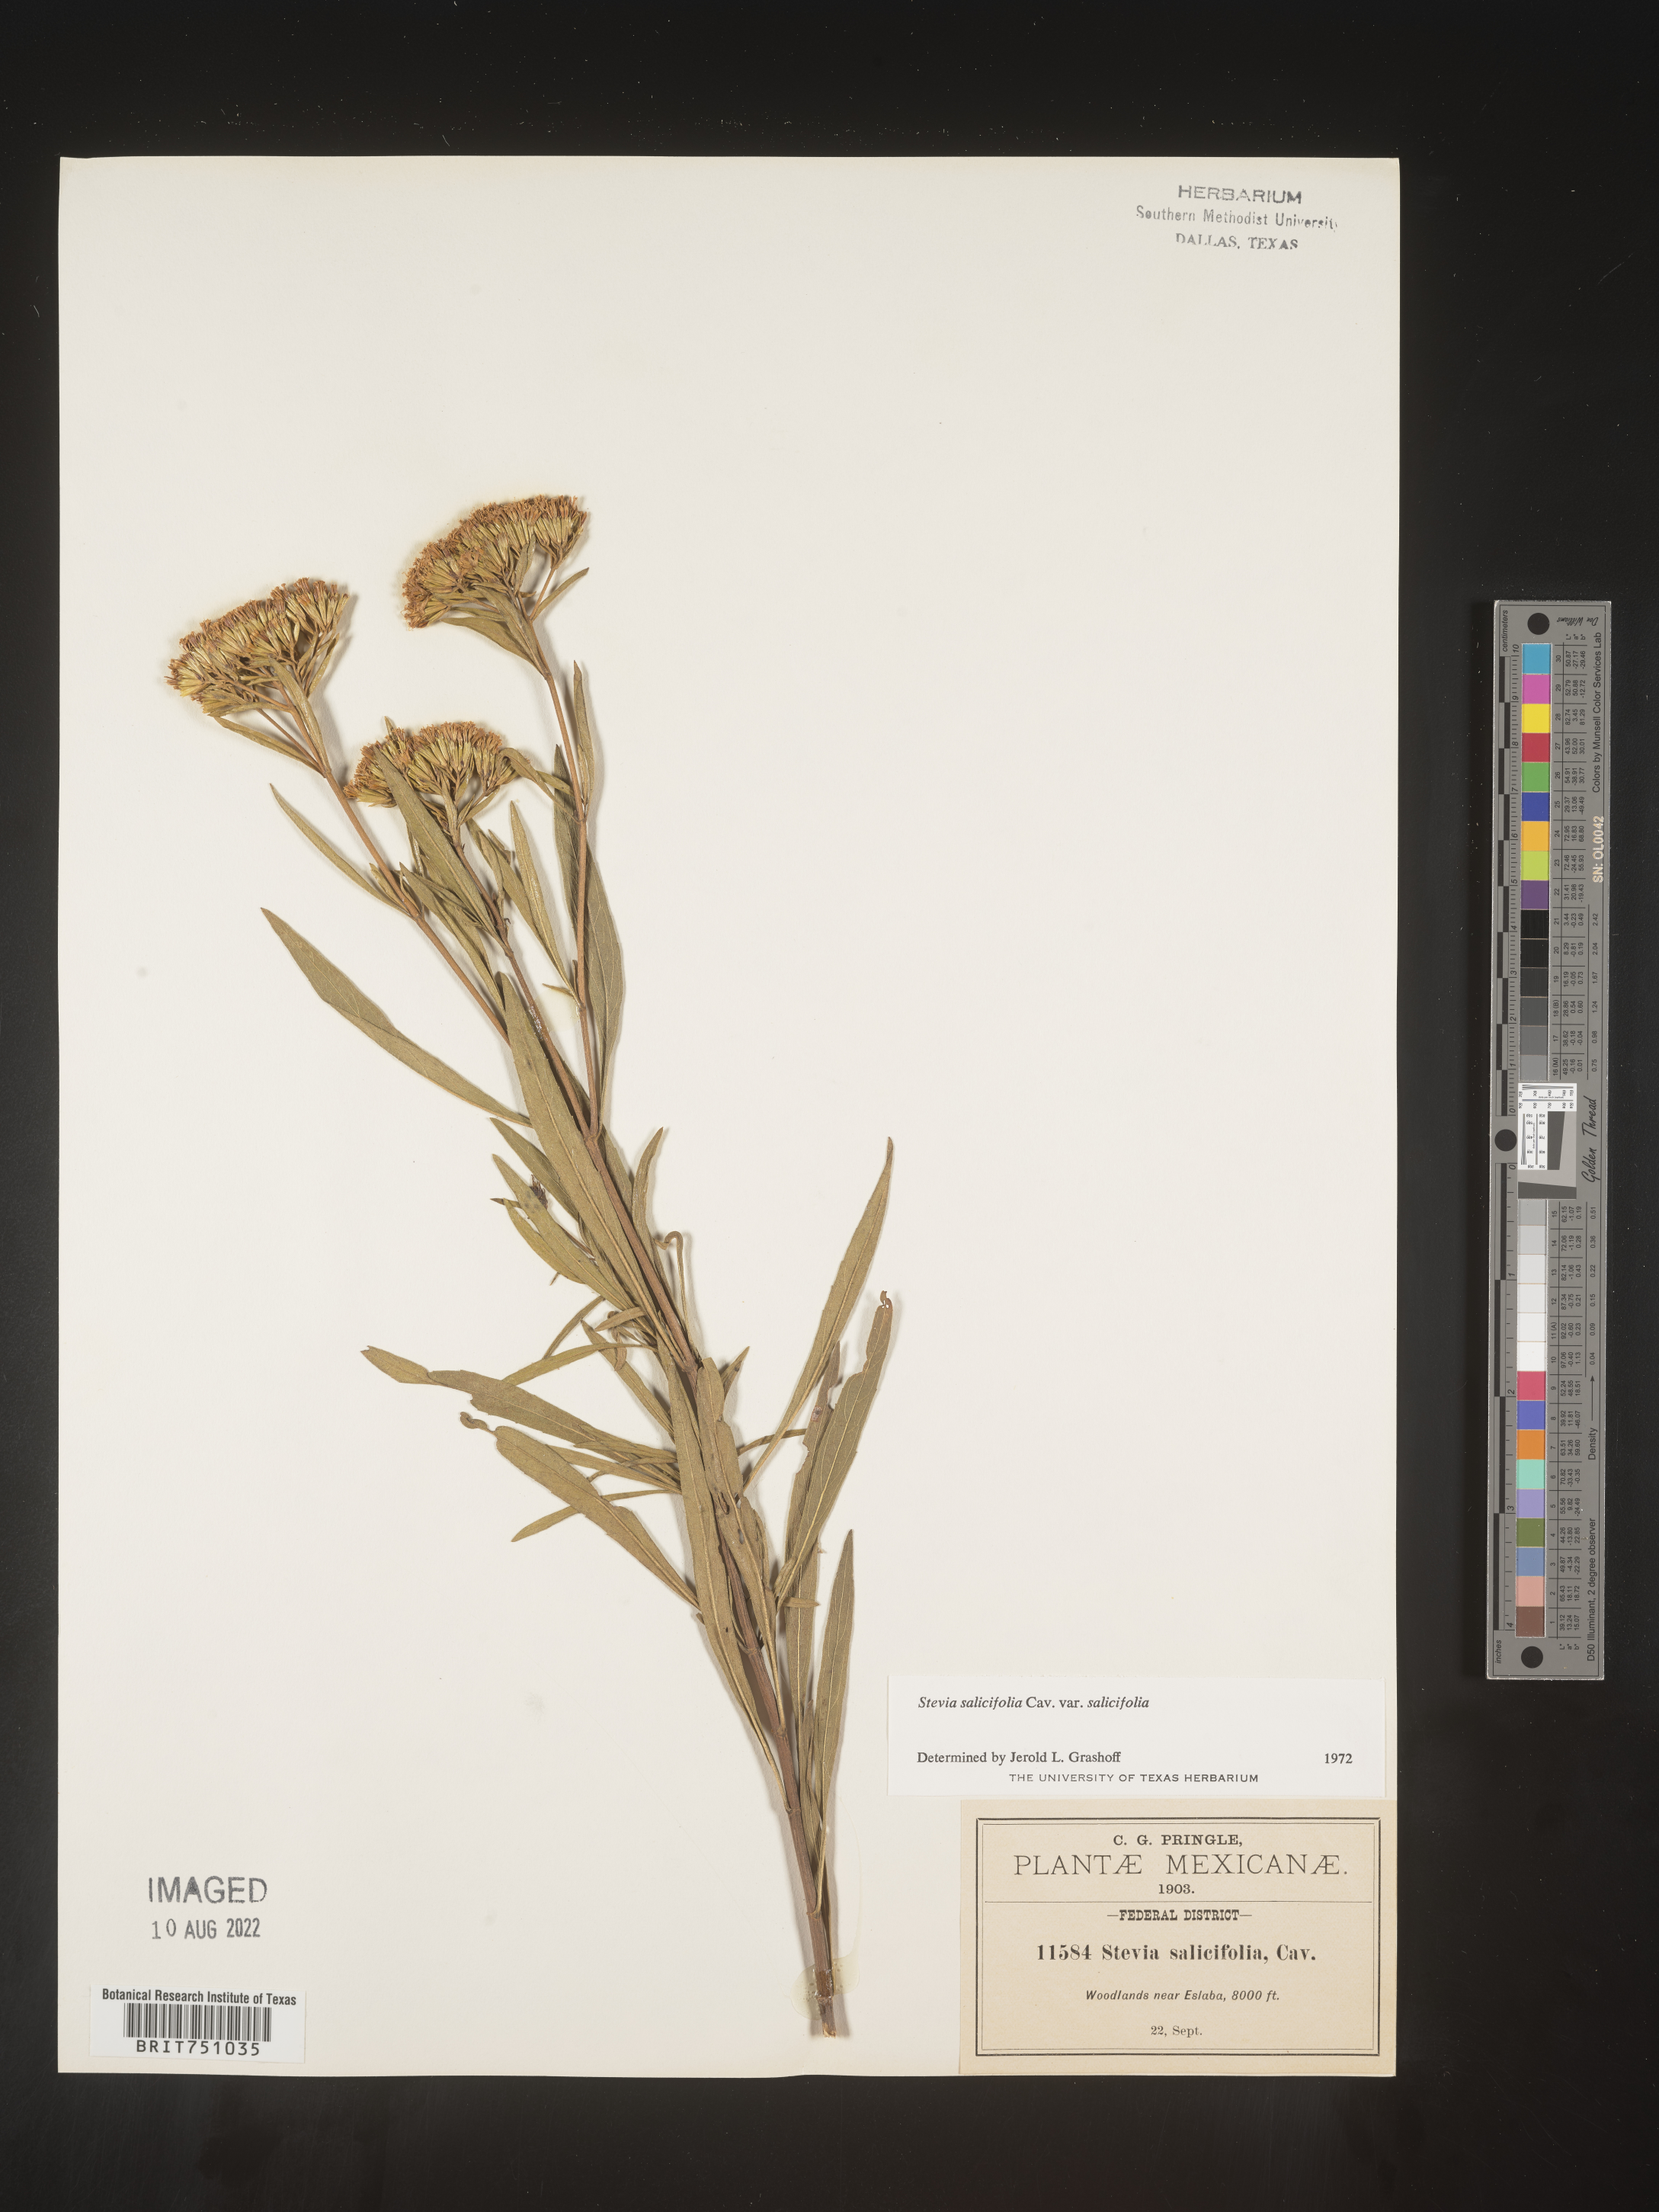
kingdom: Plantae
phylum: Tracheophyta
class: Magnoliopsida
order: Asterales
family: Asteraceae
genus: Stevia
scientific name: Stevia salicifolia
